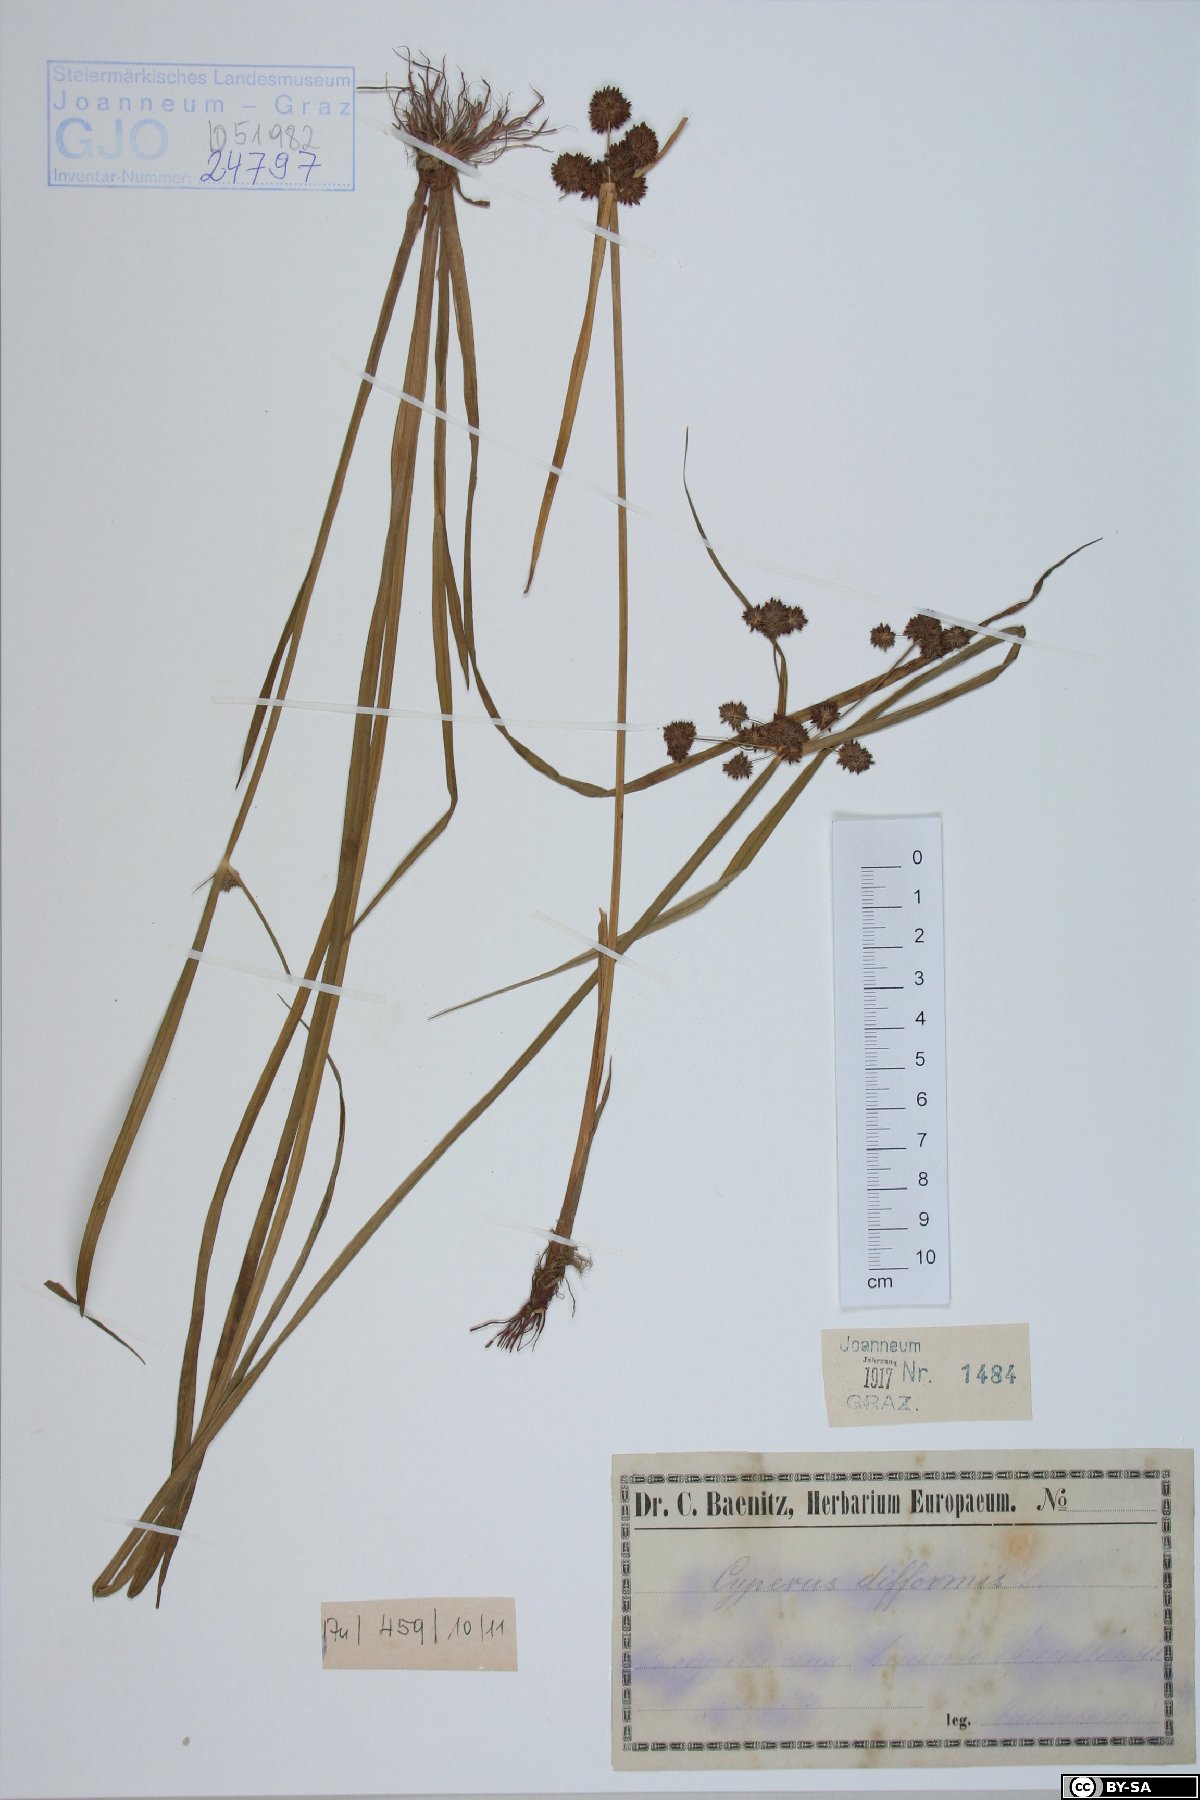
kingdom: Plantae
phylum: Tracheophyta
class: Liliopsida
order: Poales
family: Cyperaceae
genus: Cyperus
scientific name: Cyperus difformis
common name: Variable flatsedge
